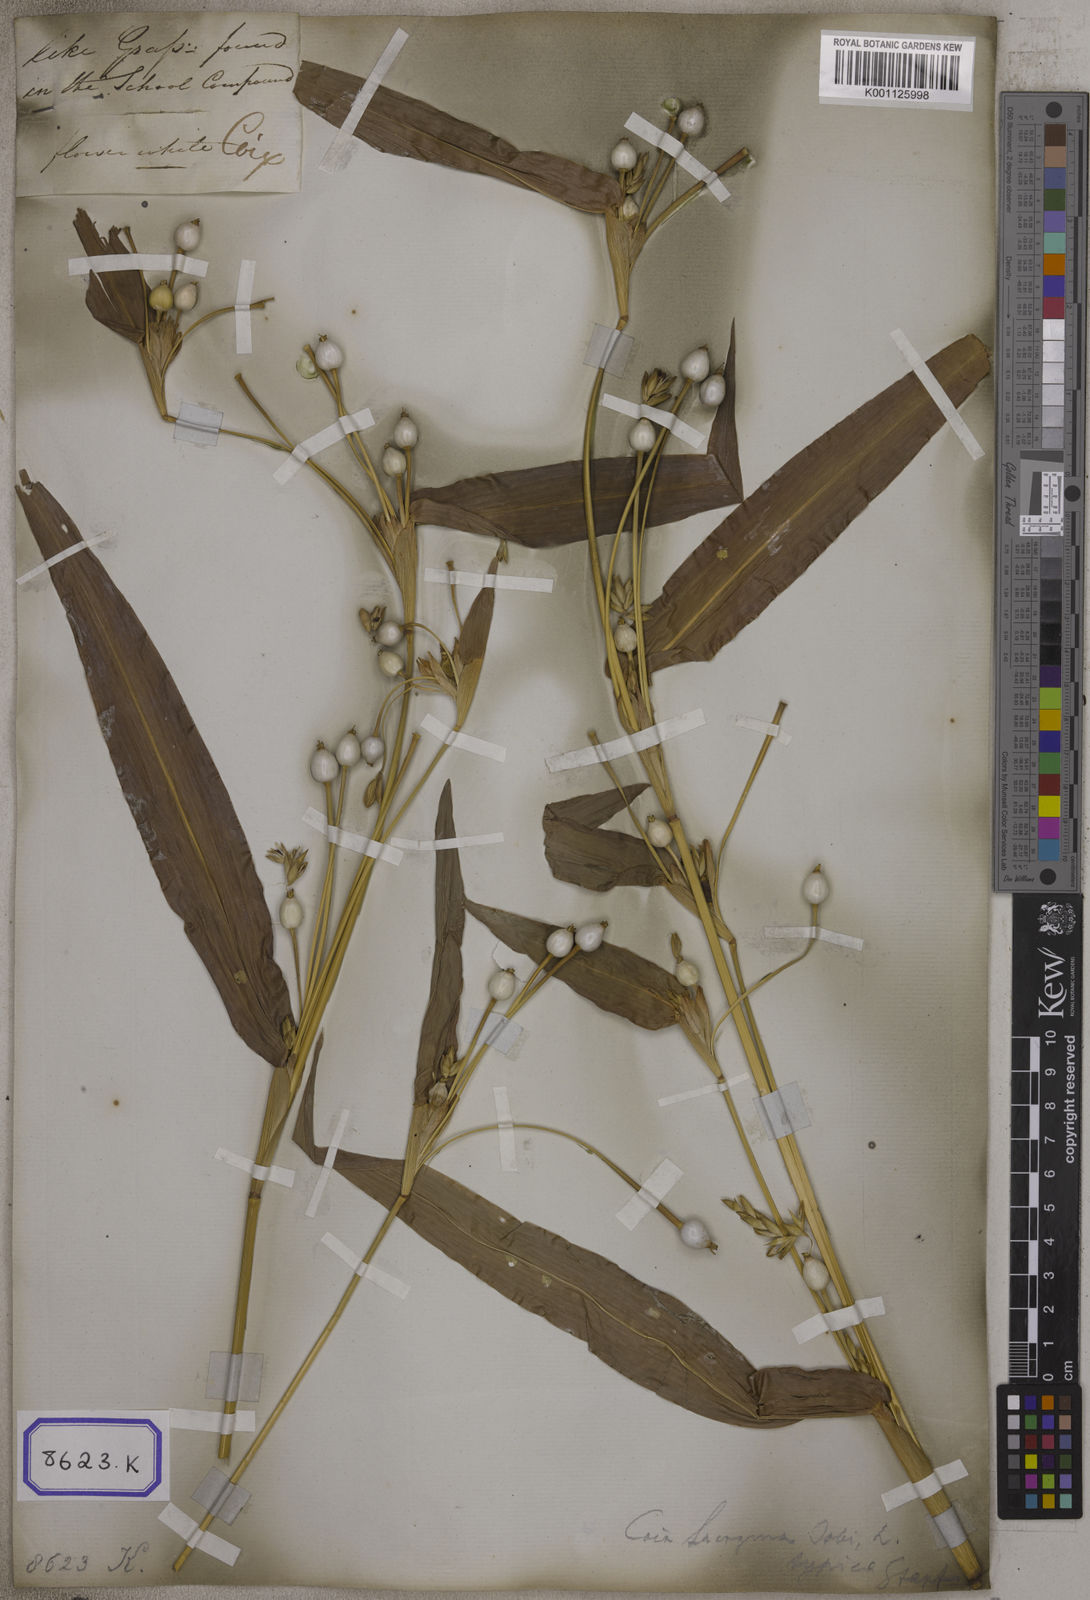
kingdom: Plantae
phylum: Tracheophyta
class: Liliopsida
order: Poales
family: Poaceae
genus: Coix
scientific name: Coix lacryma-jobi
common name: Job's tears
